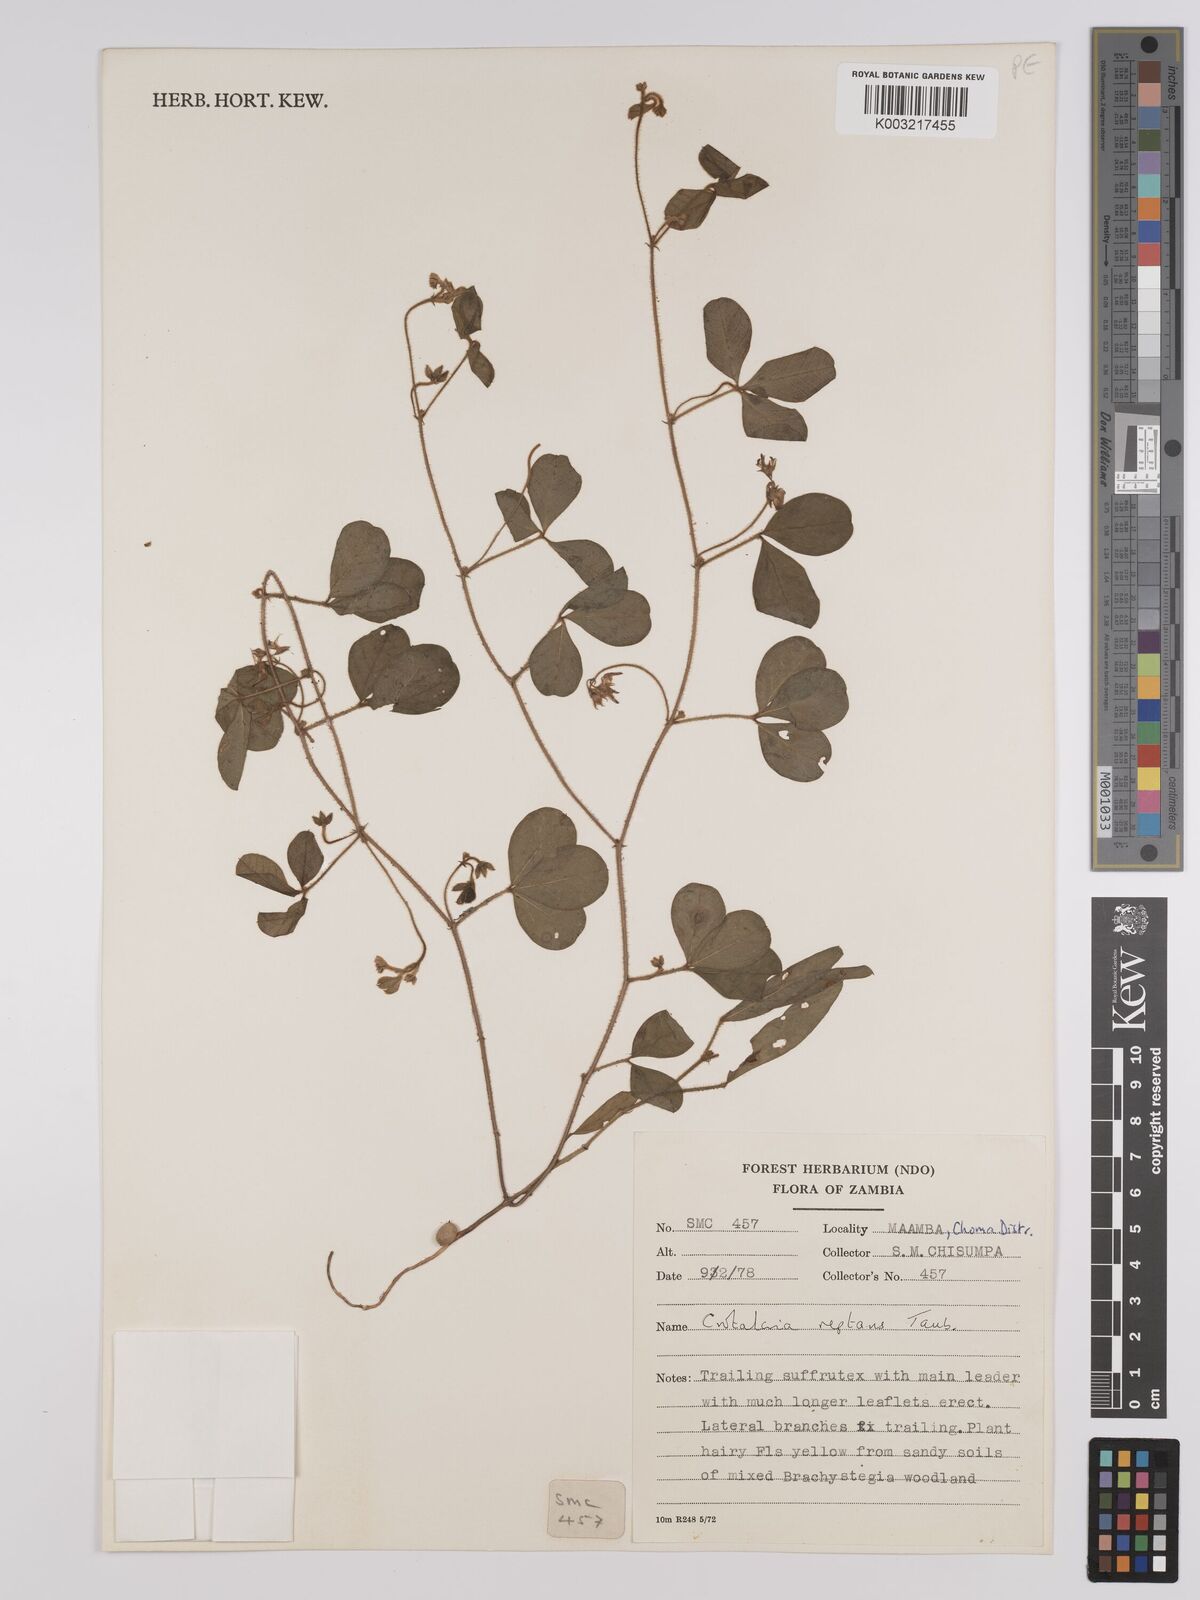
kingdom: Plantae
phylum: Tracheophyta
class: Magnoliopsida
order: Fabales
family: Fabaceae
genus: Crotalaria
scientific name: Crotalaria reptans
